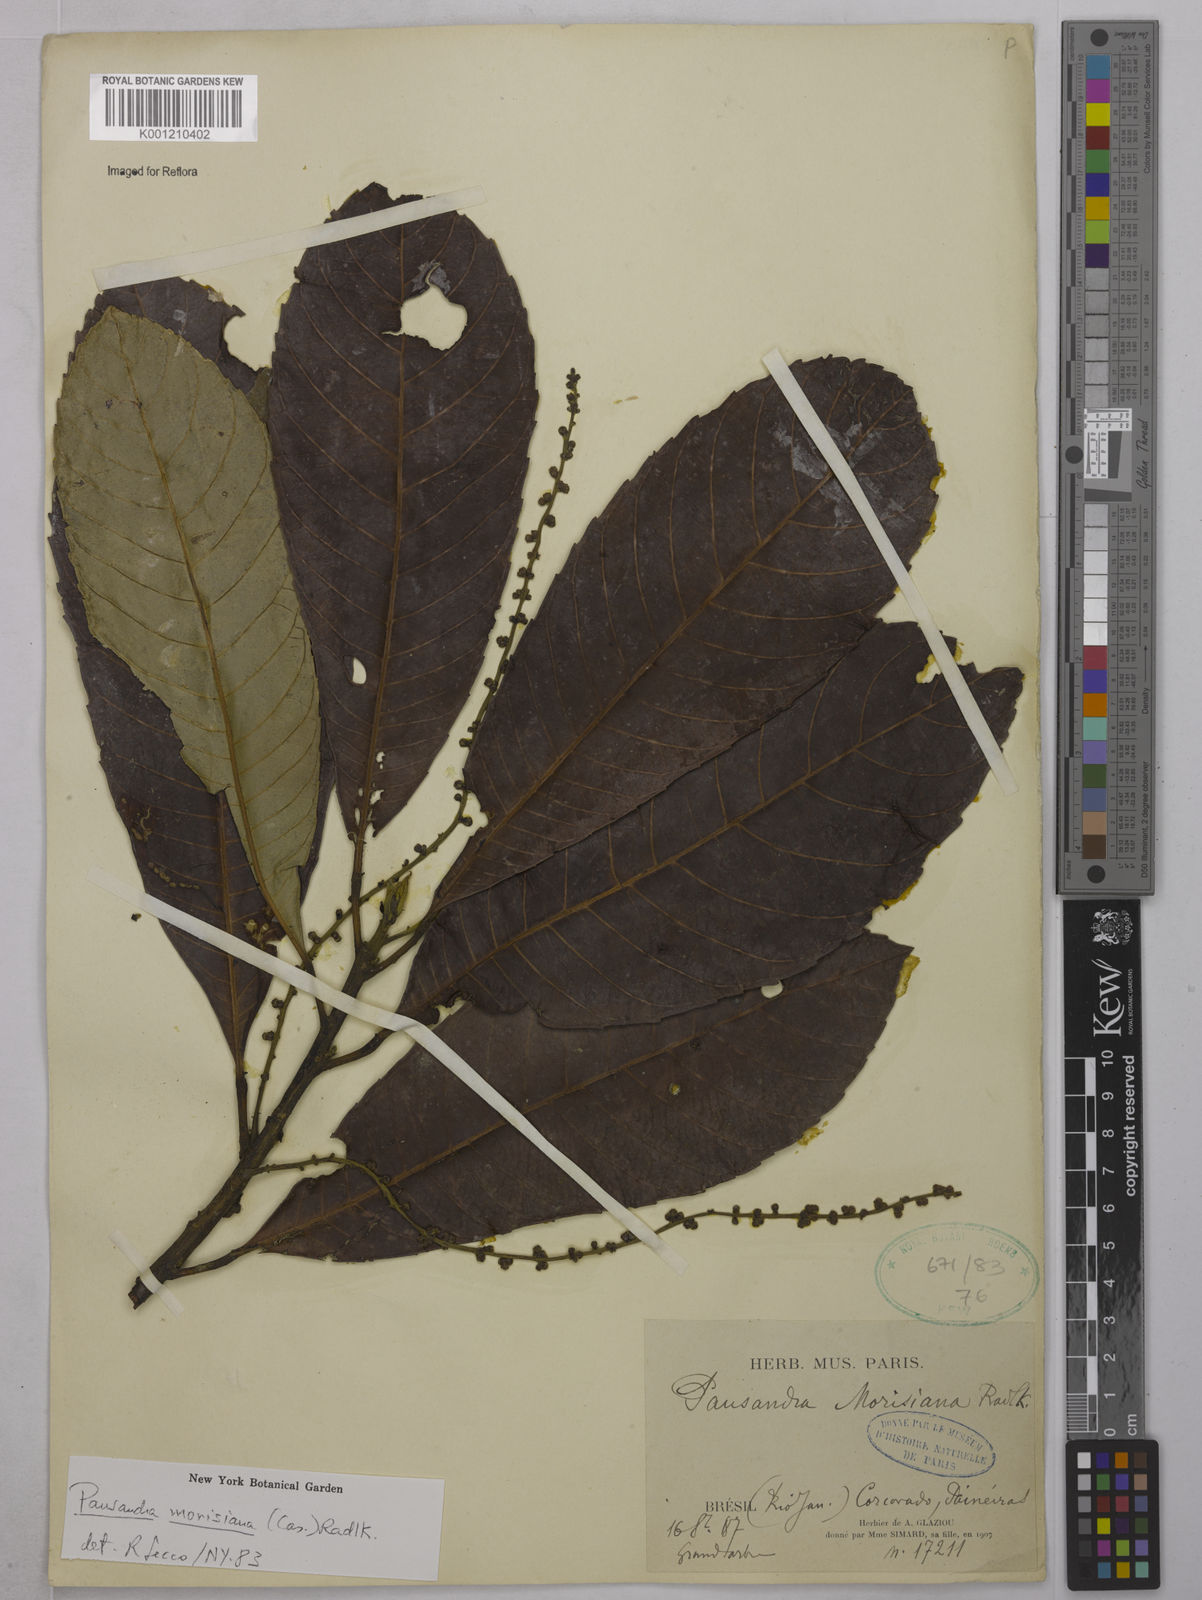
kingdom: Plantae
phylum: Tracheophyta
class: Magnoliopsida
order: Malpighiales
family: Euphorbiaceae
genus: Pausandra
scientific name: Pausandra morisiana
